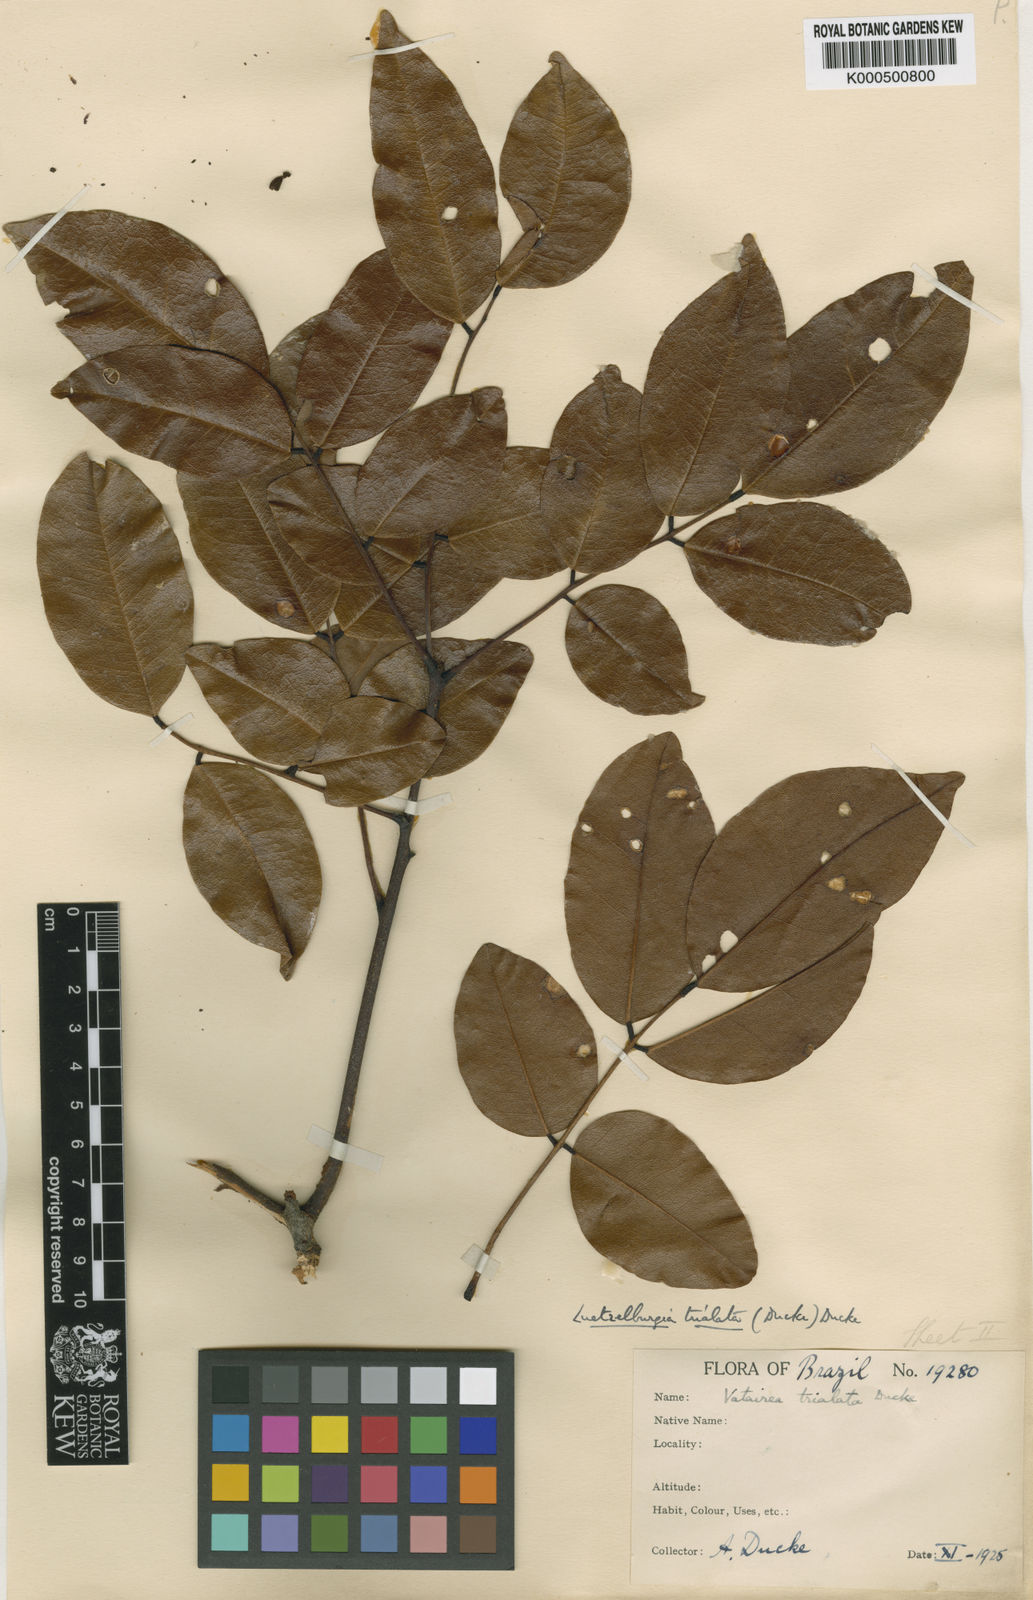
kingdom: Plantae
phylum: Tracheophyta
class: Magnoliopsida
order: Fabales
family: Fabaceae
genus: Luetzelburgia
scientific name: Luetzelburgia trialata
